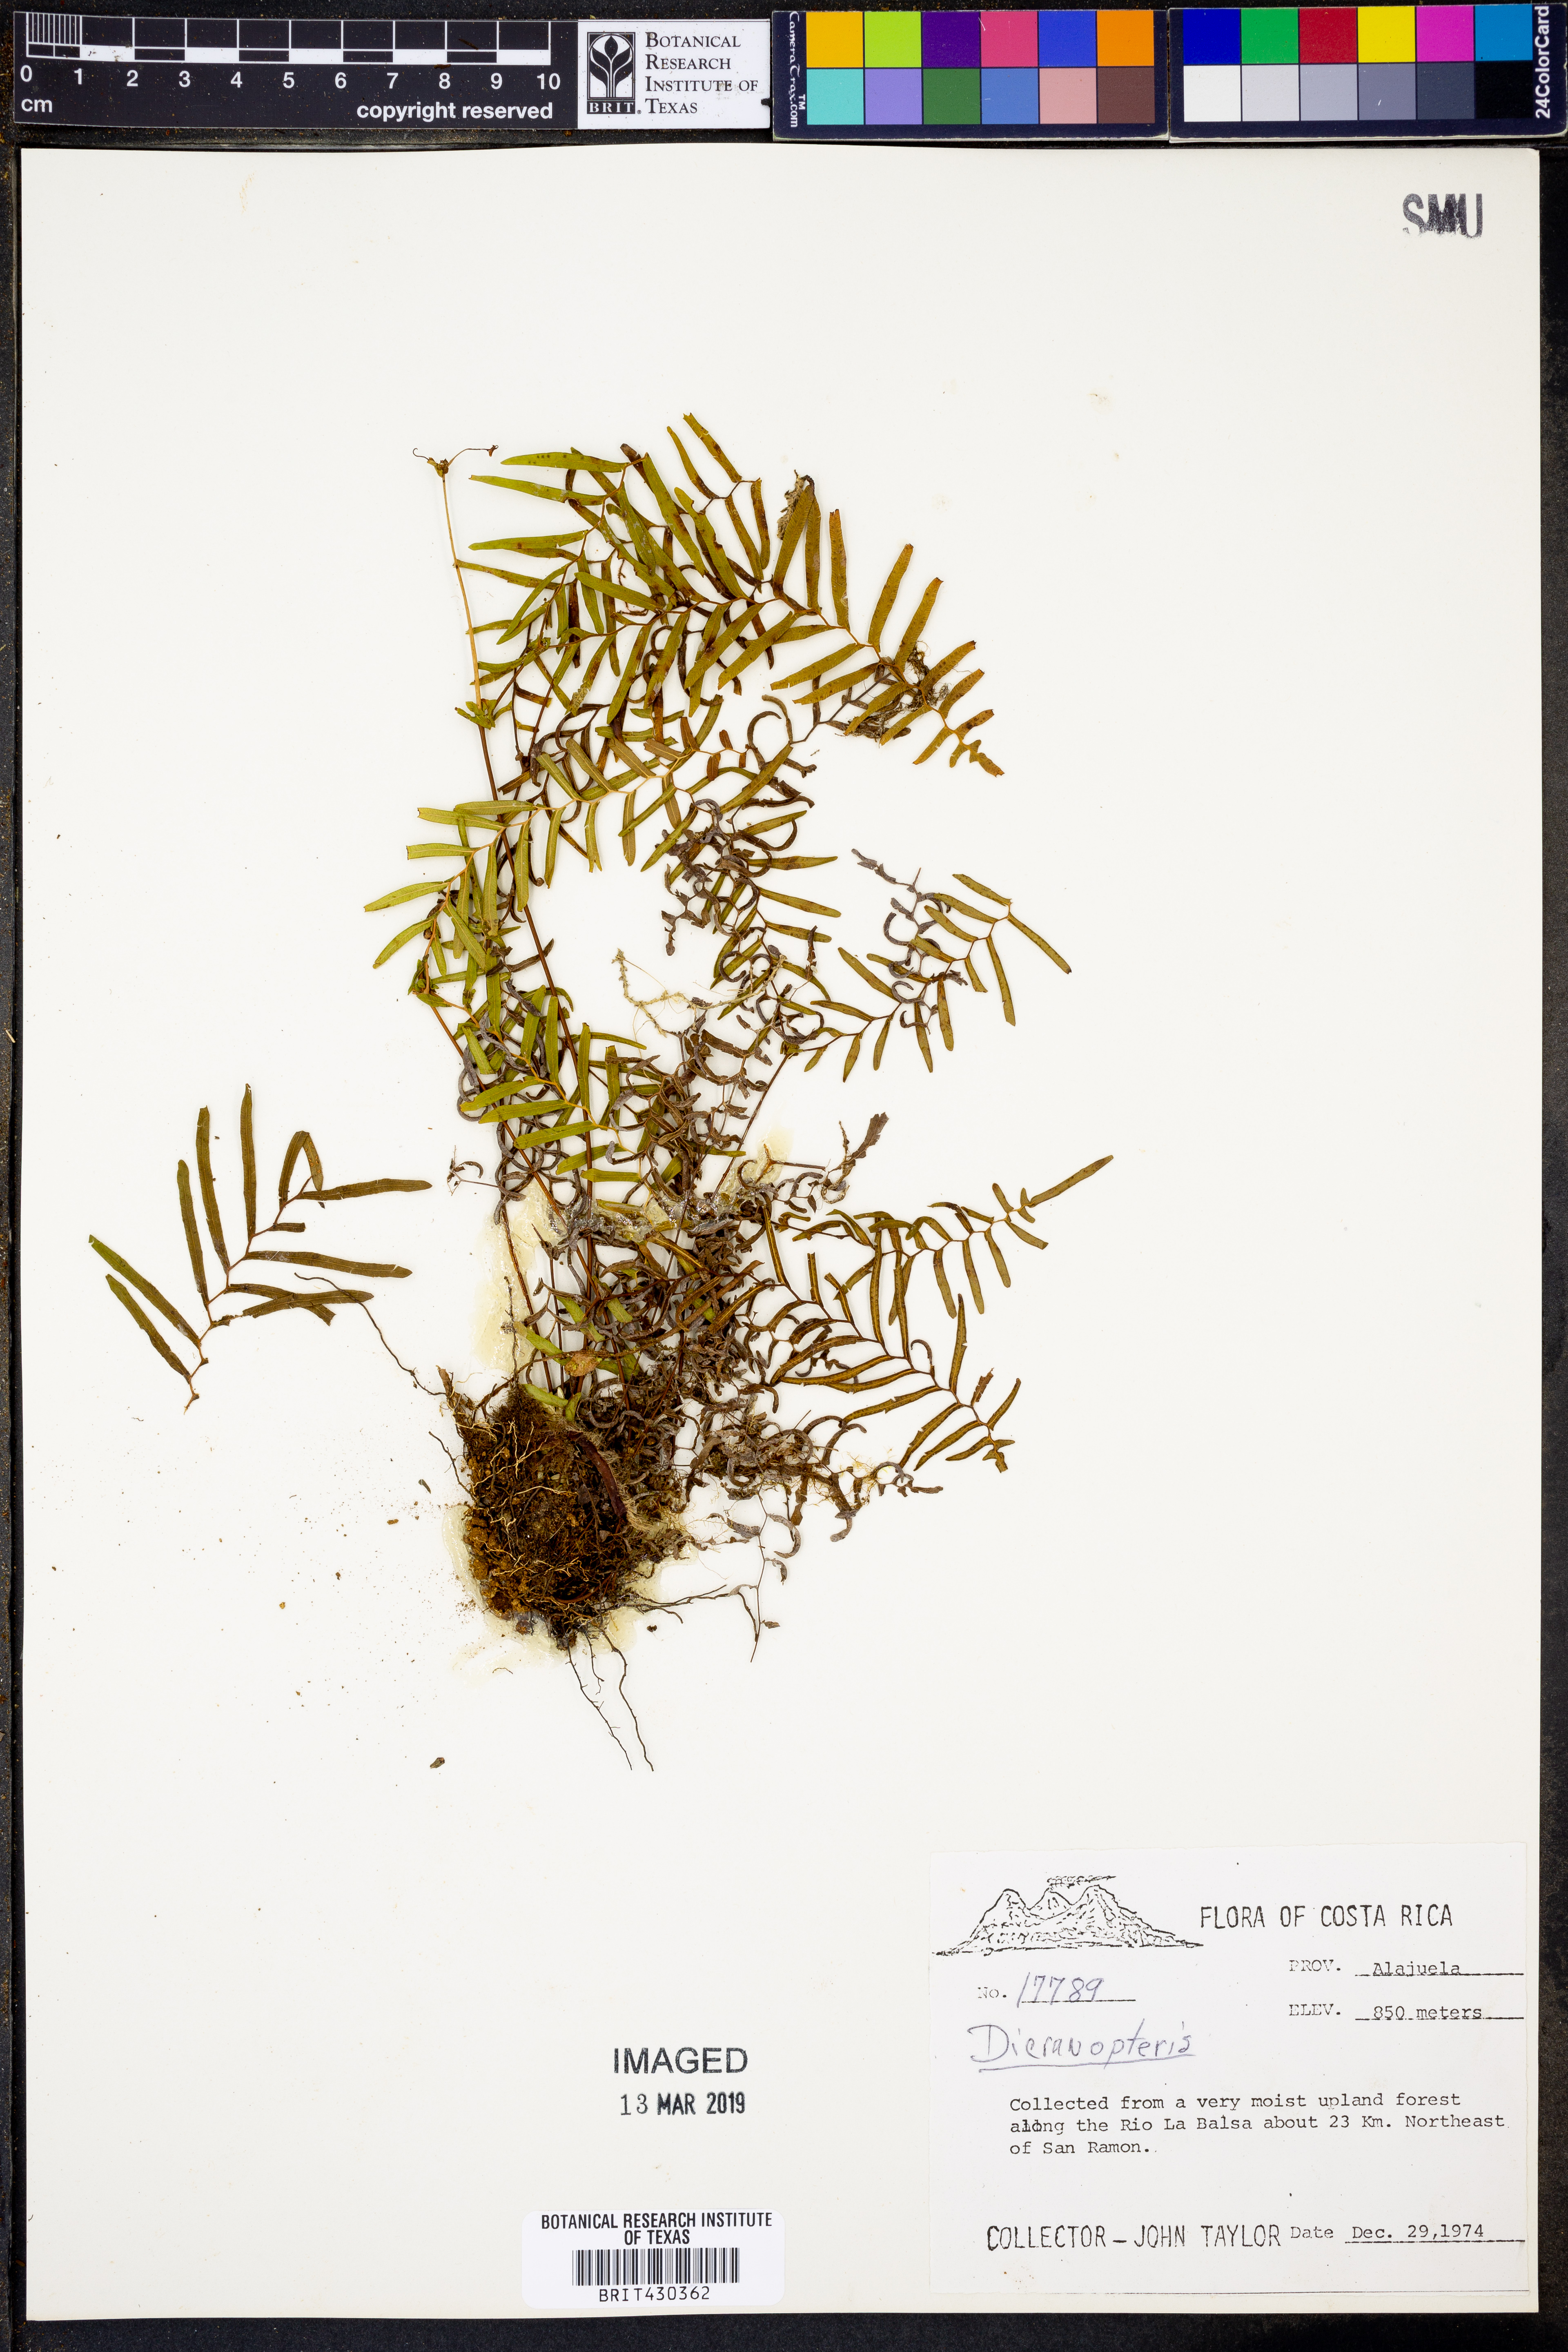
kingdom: Plantae
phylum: Tracheophyta
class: Polypodiopsida
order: Gleicheniales
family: Gleicheniaceae
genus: Dicranopteris
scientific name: Dicranopteris
